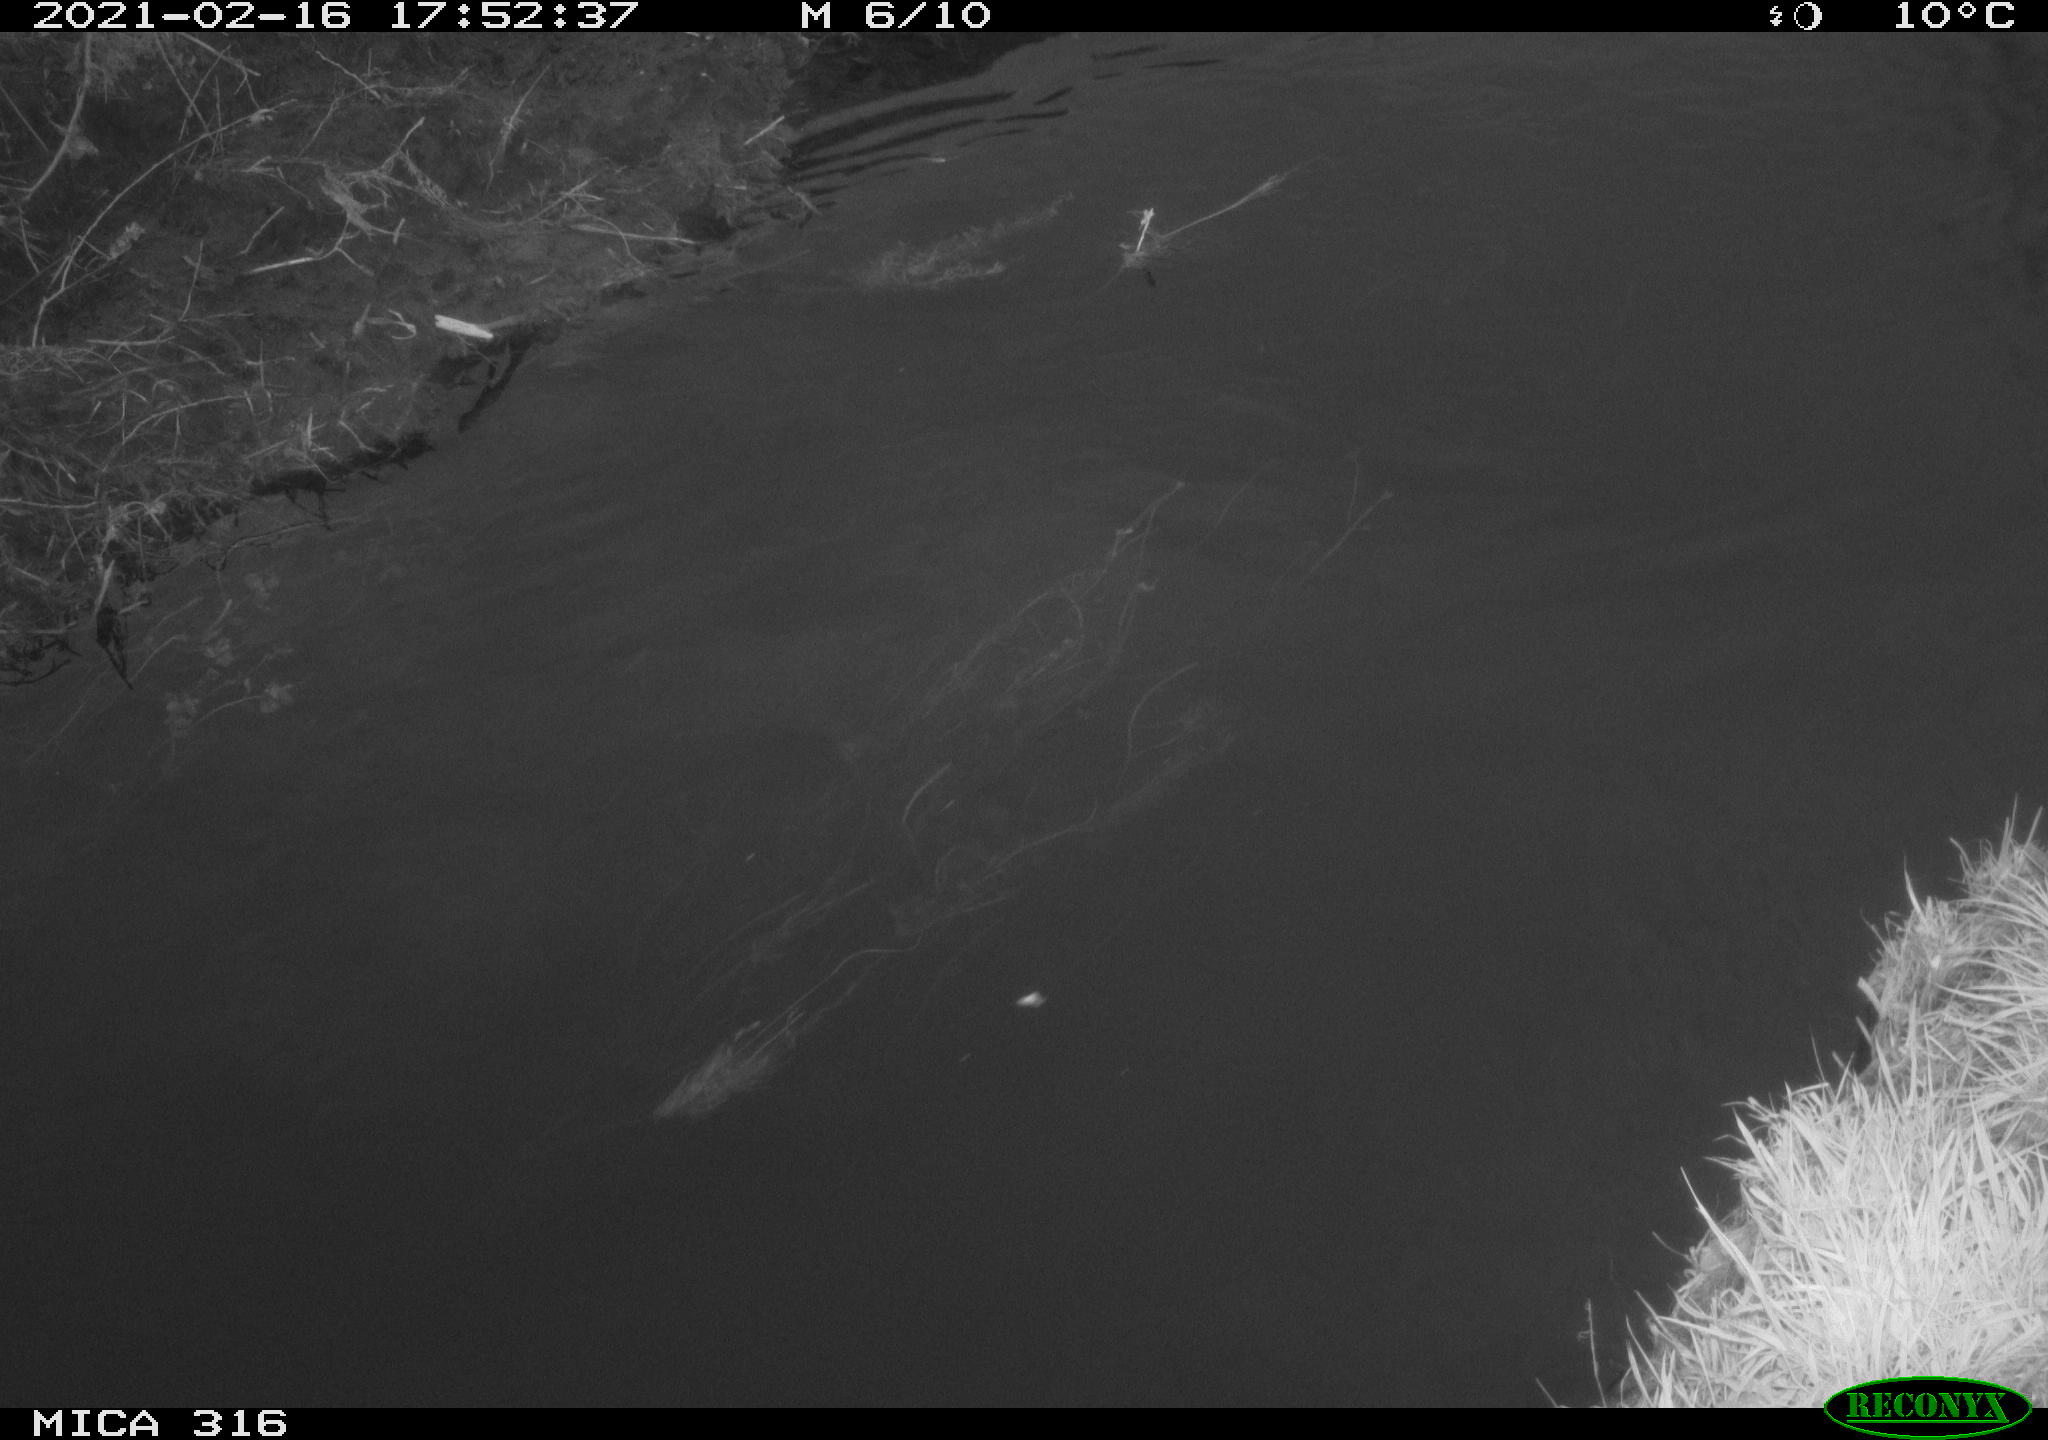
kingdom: Animalia
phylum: Chordata
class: Aves
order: Podicipediformes
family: Podicipedidae
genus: Tachybaptus
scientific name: Tachybaptus ruficollis
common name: Little grebe
